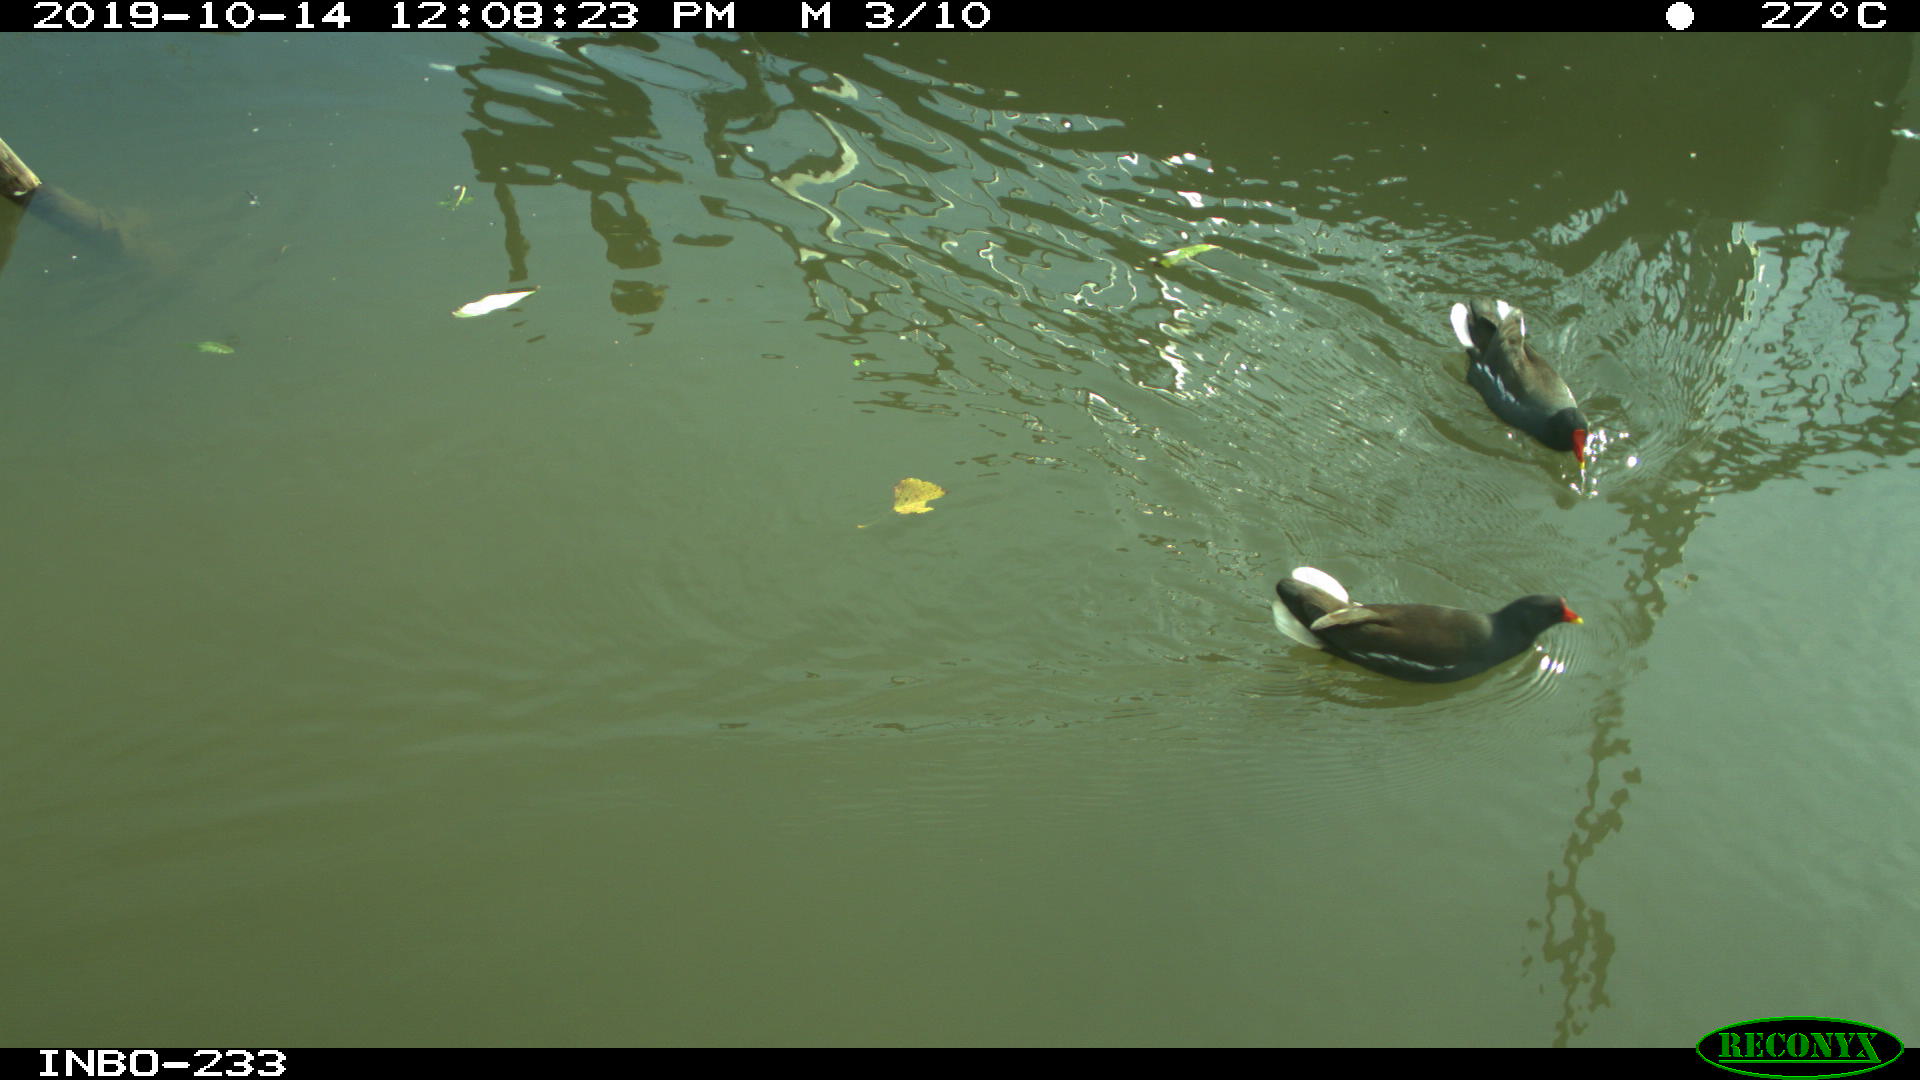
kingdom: Animalia
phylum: Chordata
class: Aves
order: Gruiformes
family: Rallidae
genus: Gallinula
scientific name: Gallinula chloropus
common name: Common moorhen
